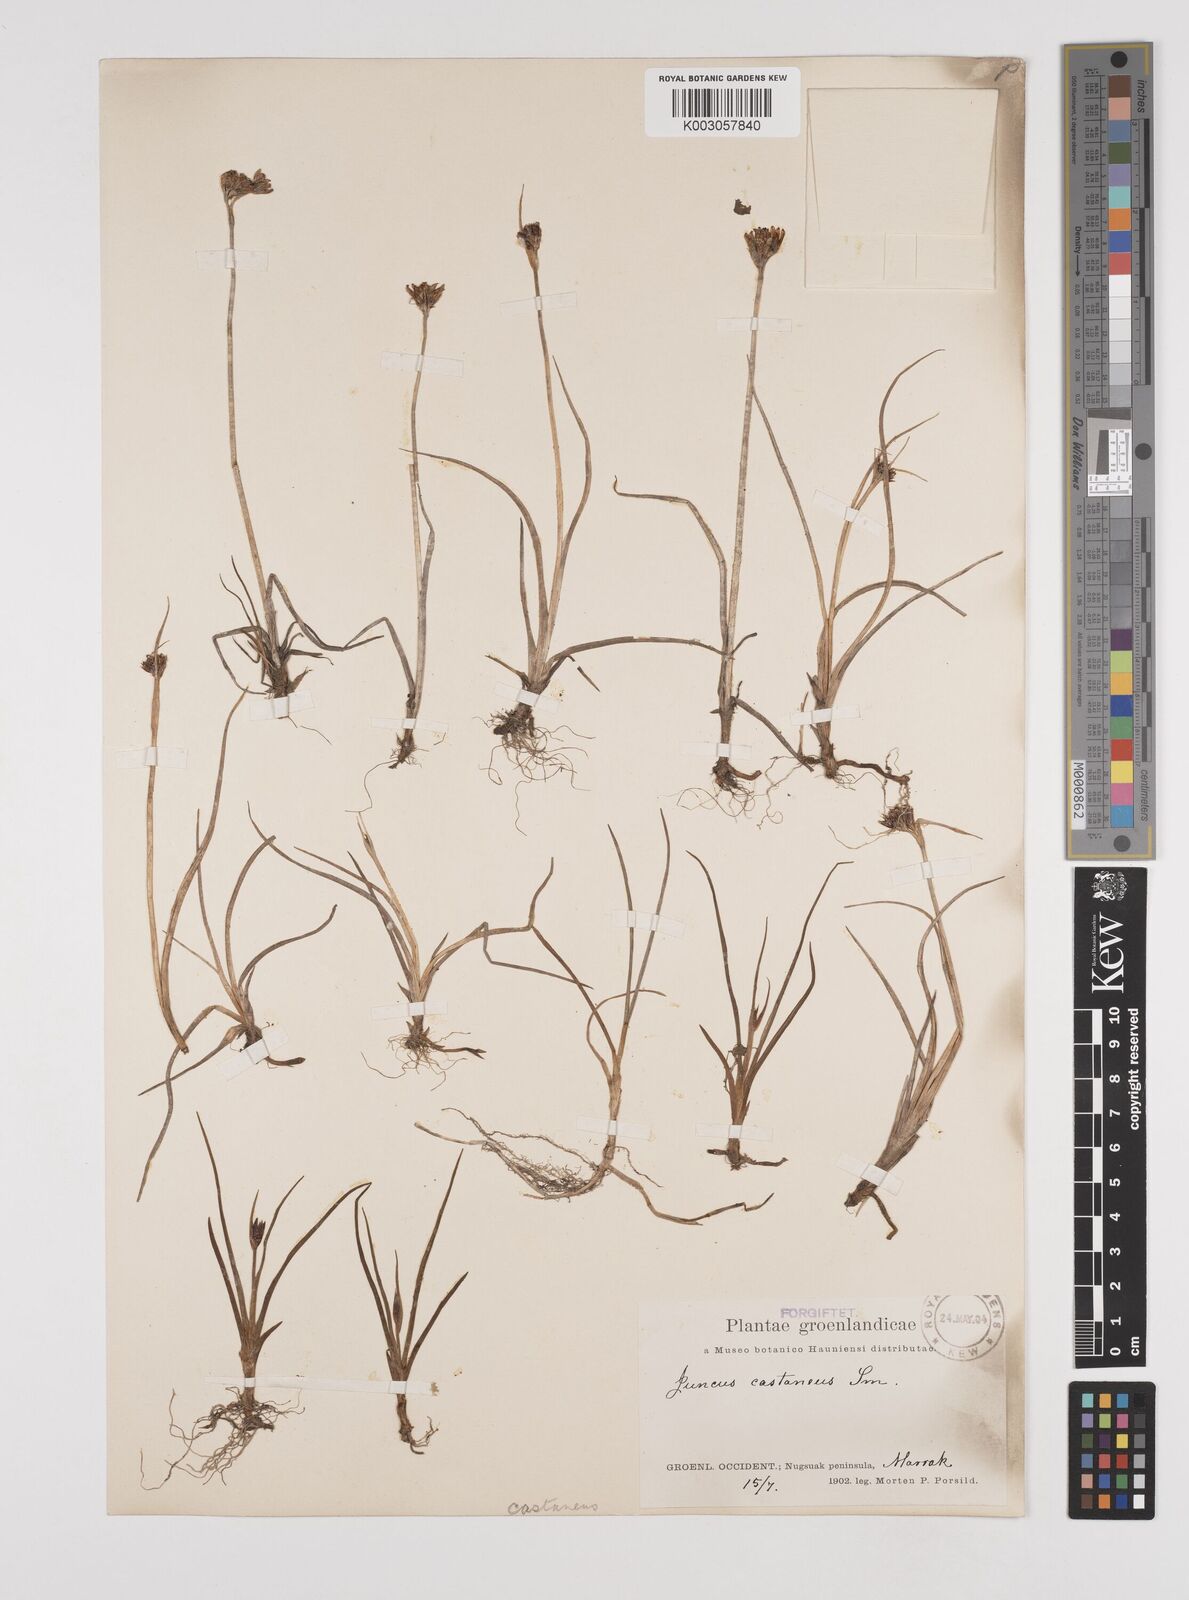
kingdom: Plantae
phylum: Tracheophyta
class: Liliopsida
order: Poales
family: Juncaceae
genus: Juncus
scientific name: Juncus castaneus
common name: Chestnut rush
